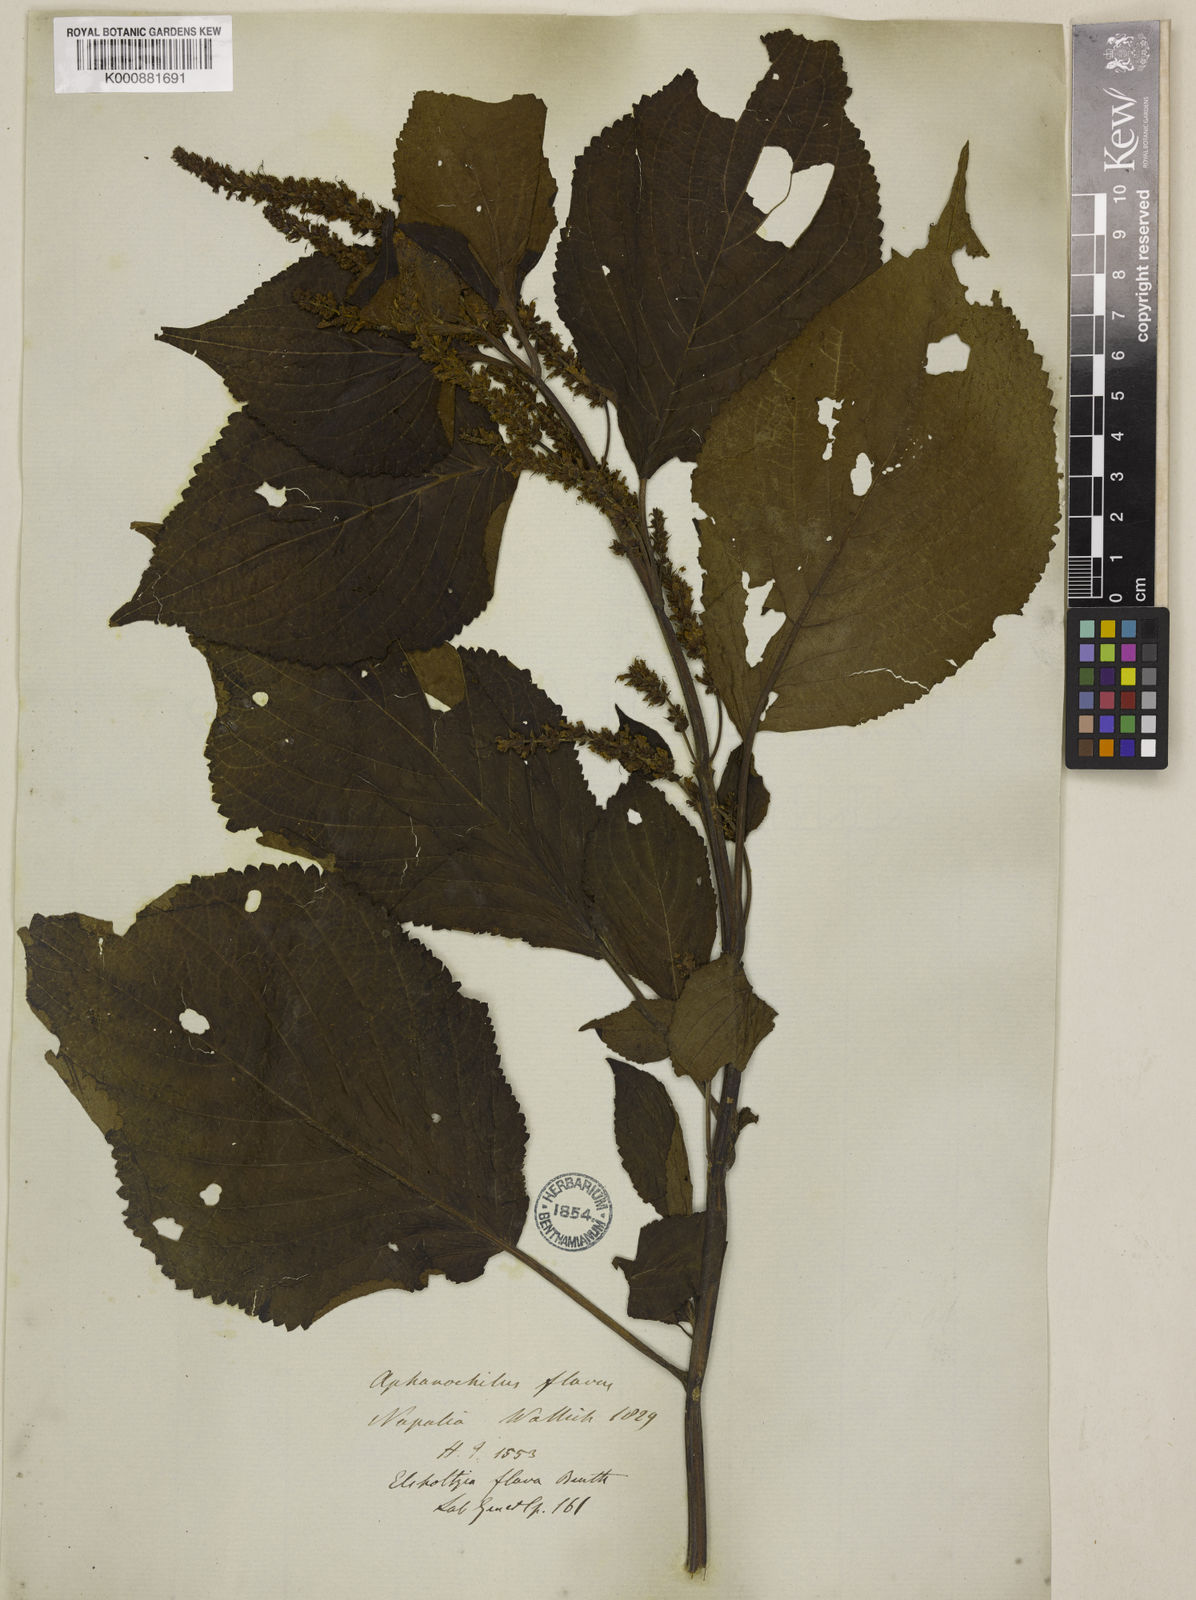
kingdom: Plantae
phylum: Tracheophyta
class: Magnoliopsida
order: Lamiales
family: Lamiaceae
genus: Elsholtzia
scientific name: Elsholtzia flava
